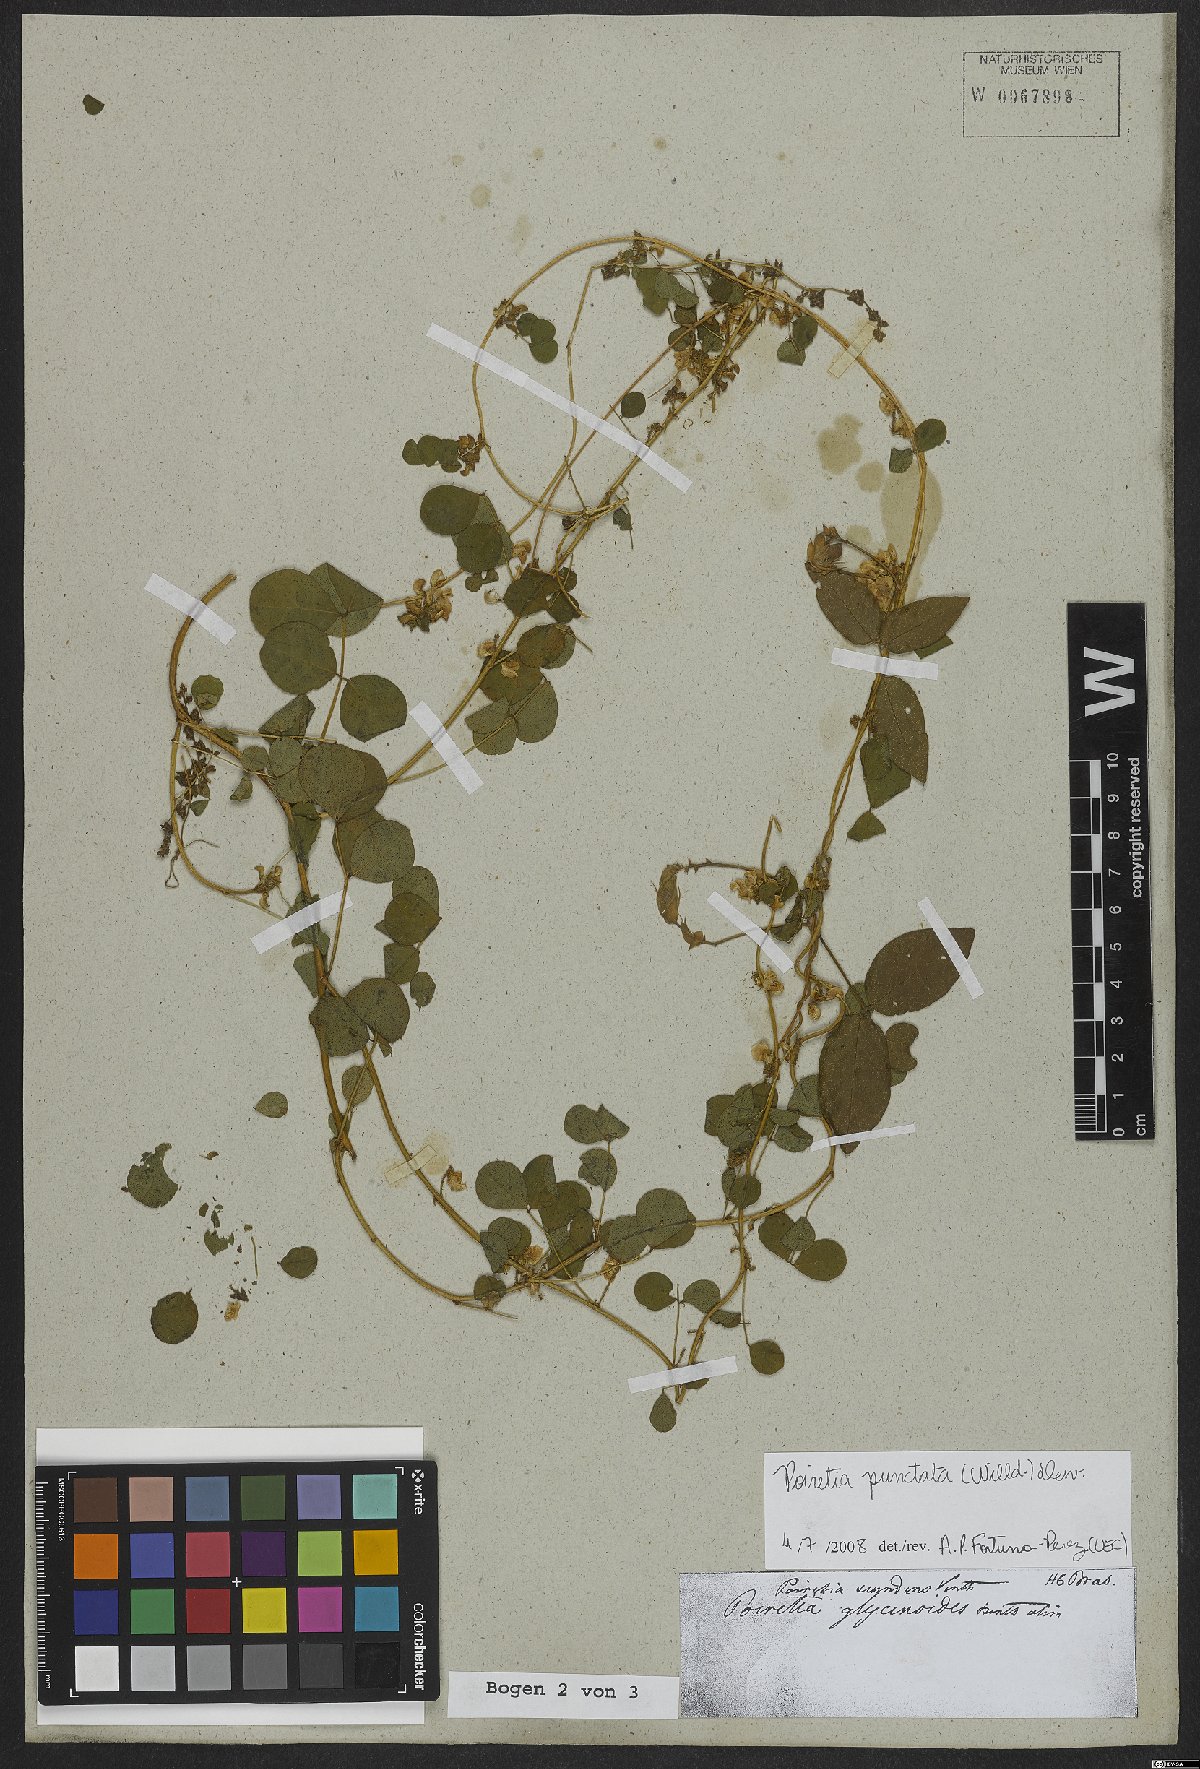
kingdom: Plantae
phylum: Tracheophyta
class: Magnoliopsida
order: Fabales
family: Fabaceae
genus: Poiretia
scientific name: Poiretia punctata
